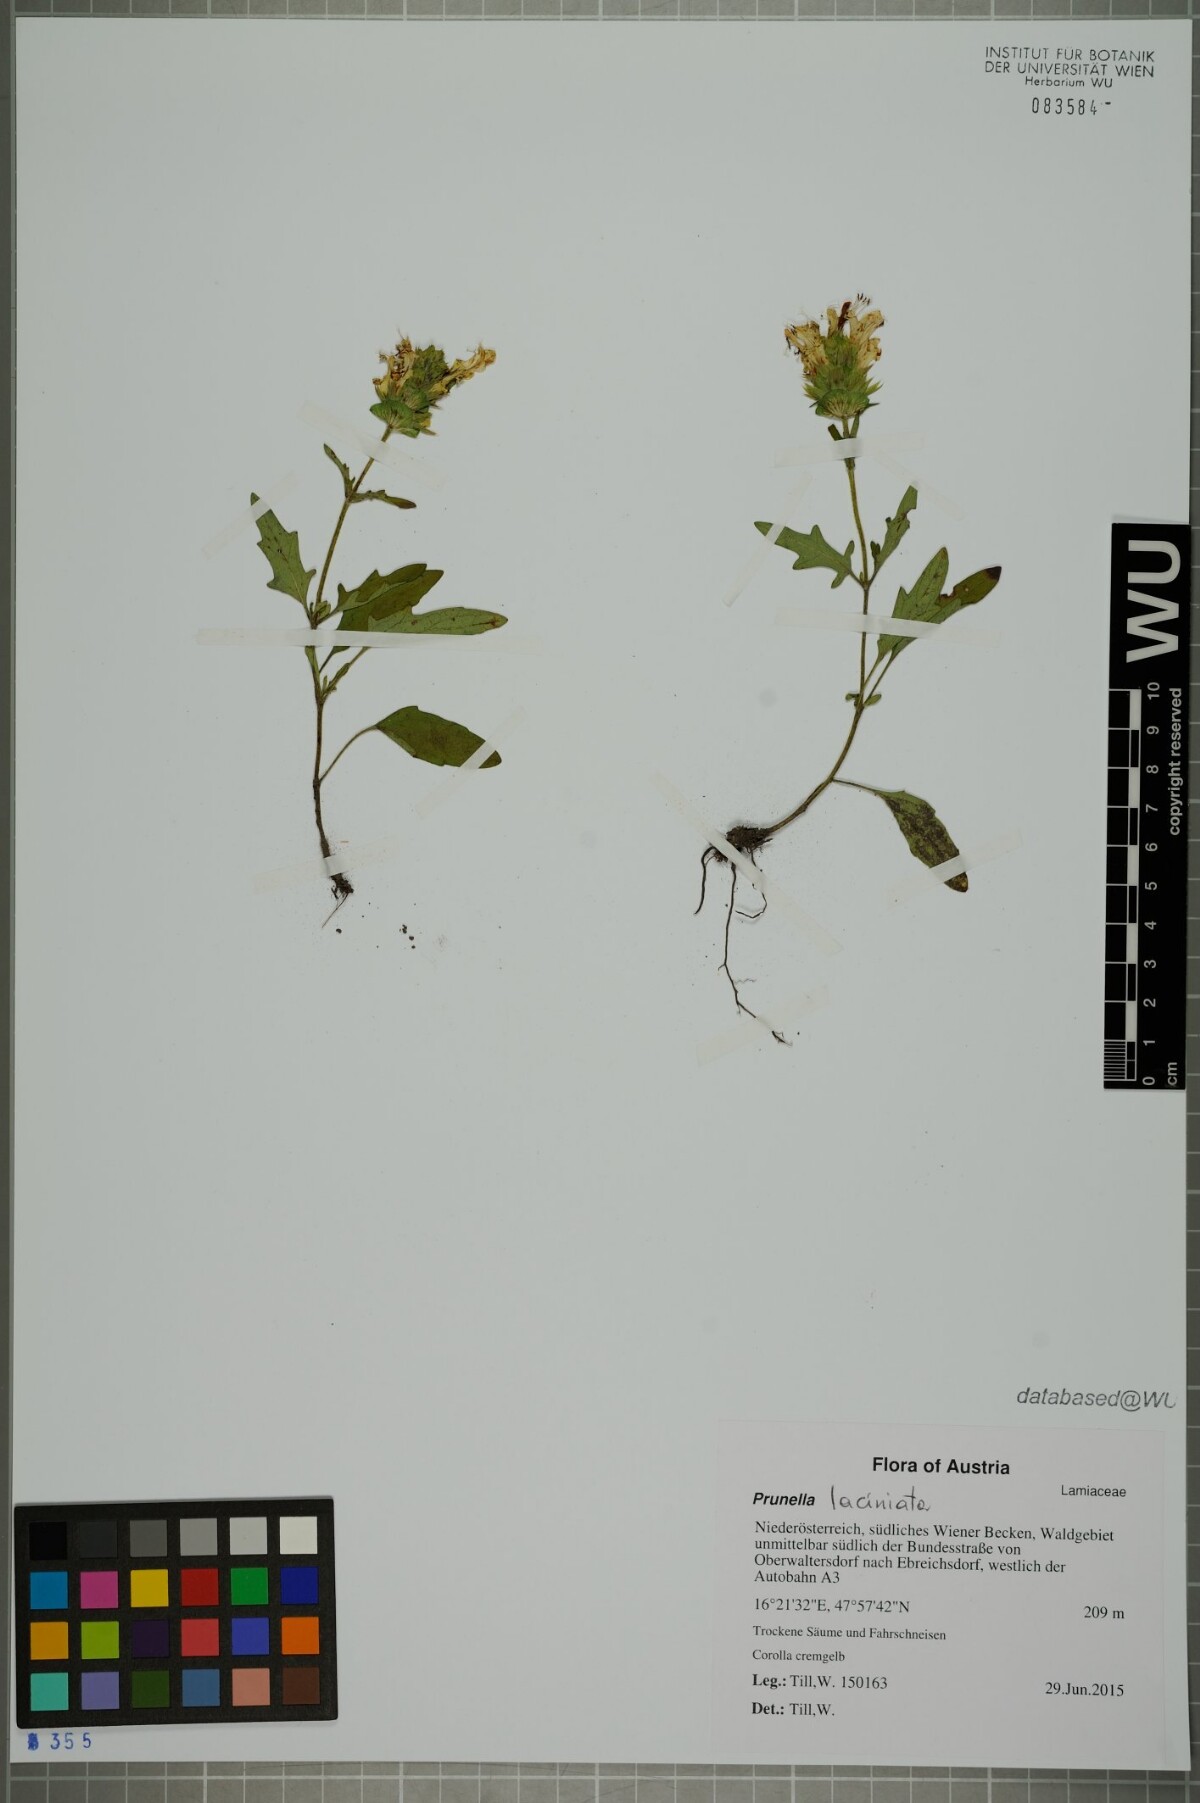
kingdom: Plantae
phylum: Tracheophyta
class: Magnoliopsida
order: Lamiales
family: Lamiaceae
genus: Prunella
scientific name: Prunella laciniata
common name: Cut-leaved selfheal
